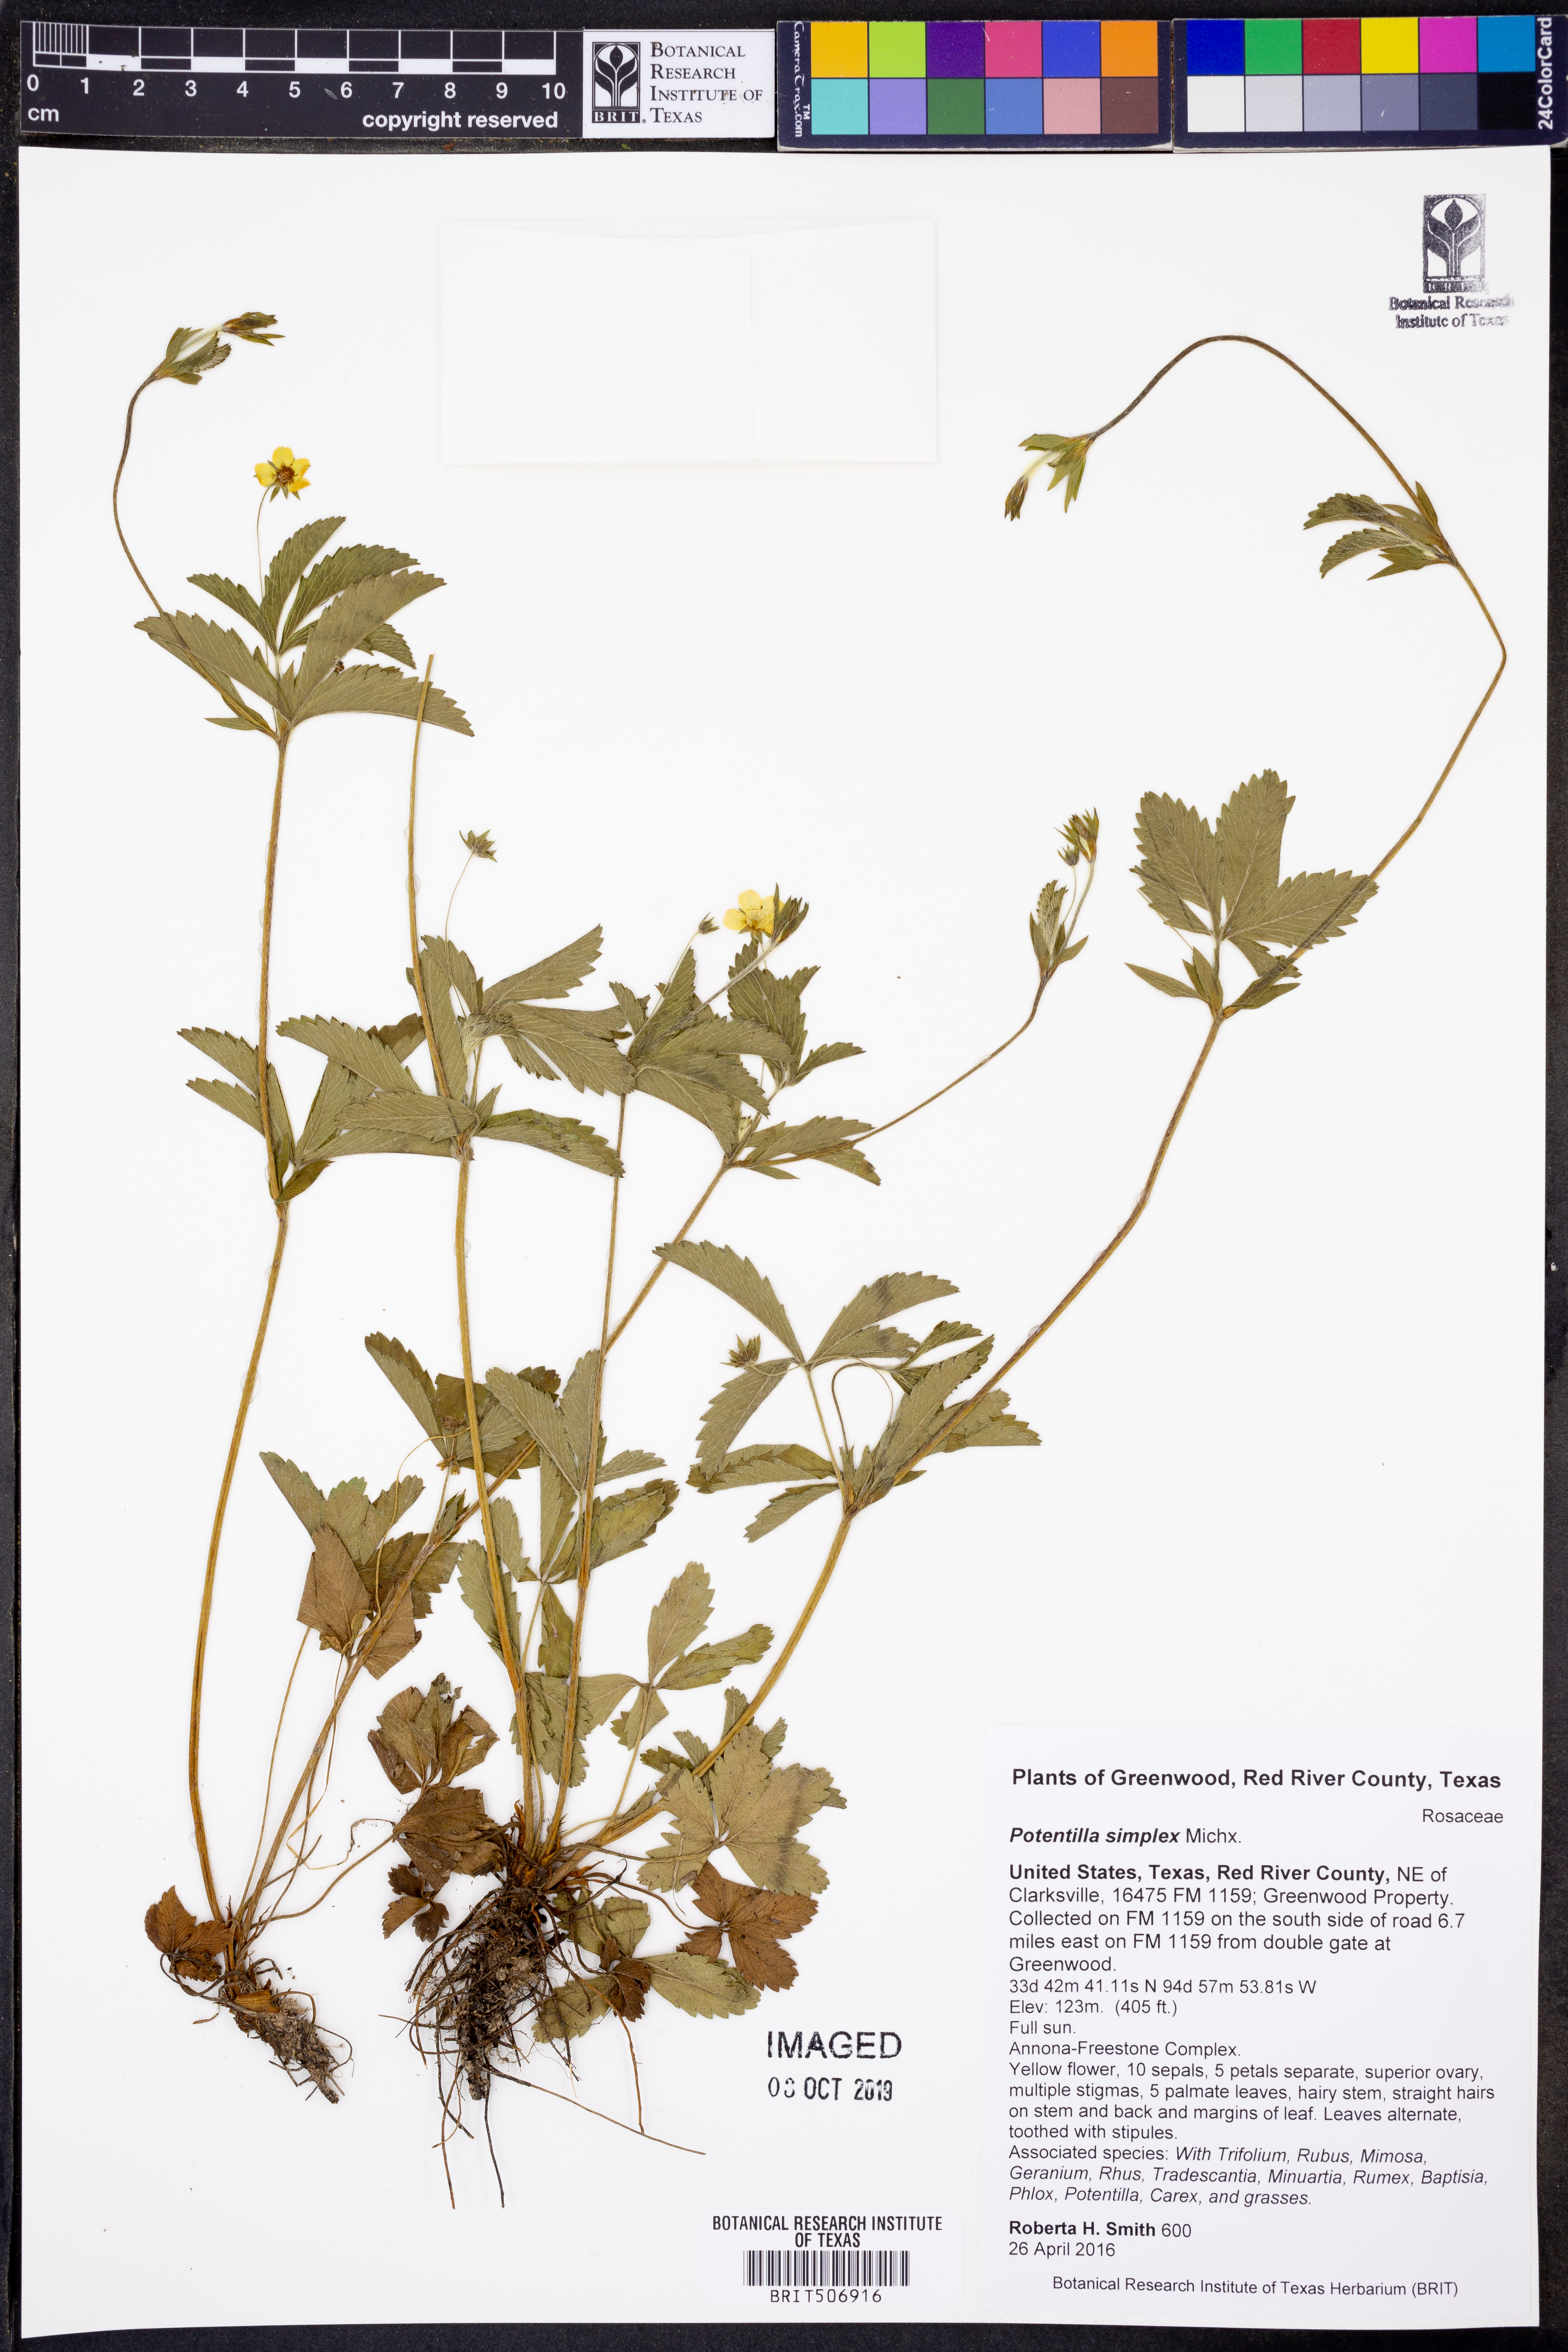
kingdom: Plantae
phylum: Tracheophyta
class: Magnoliopsida
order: Rosales
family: Rosaceae
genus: Potentilla
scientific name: Potentilla simplex
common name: Old field cinquefoil
